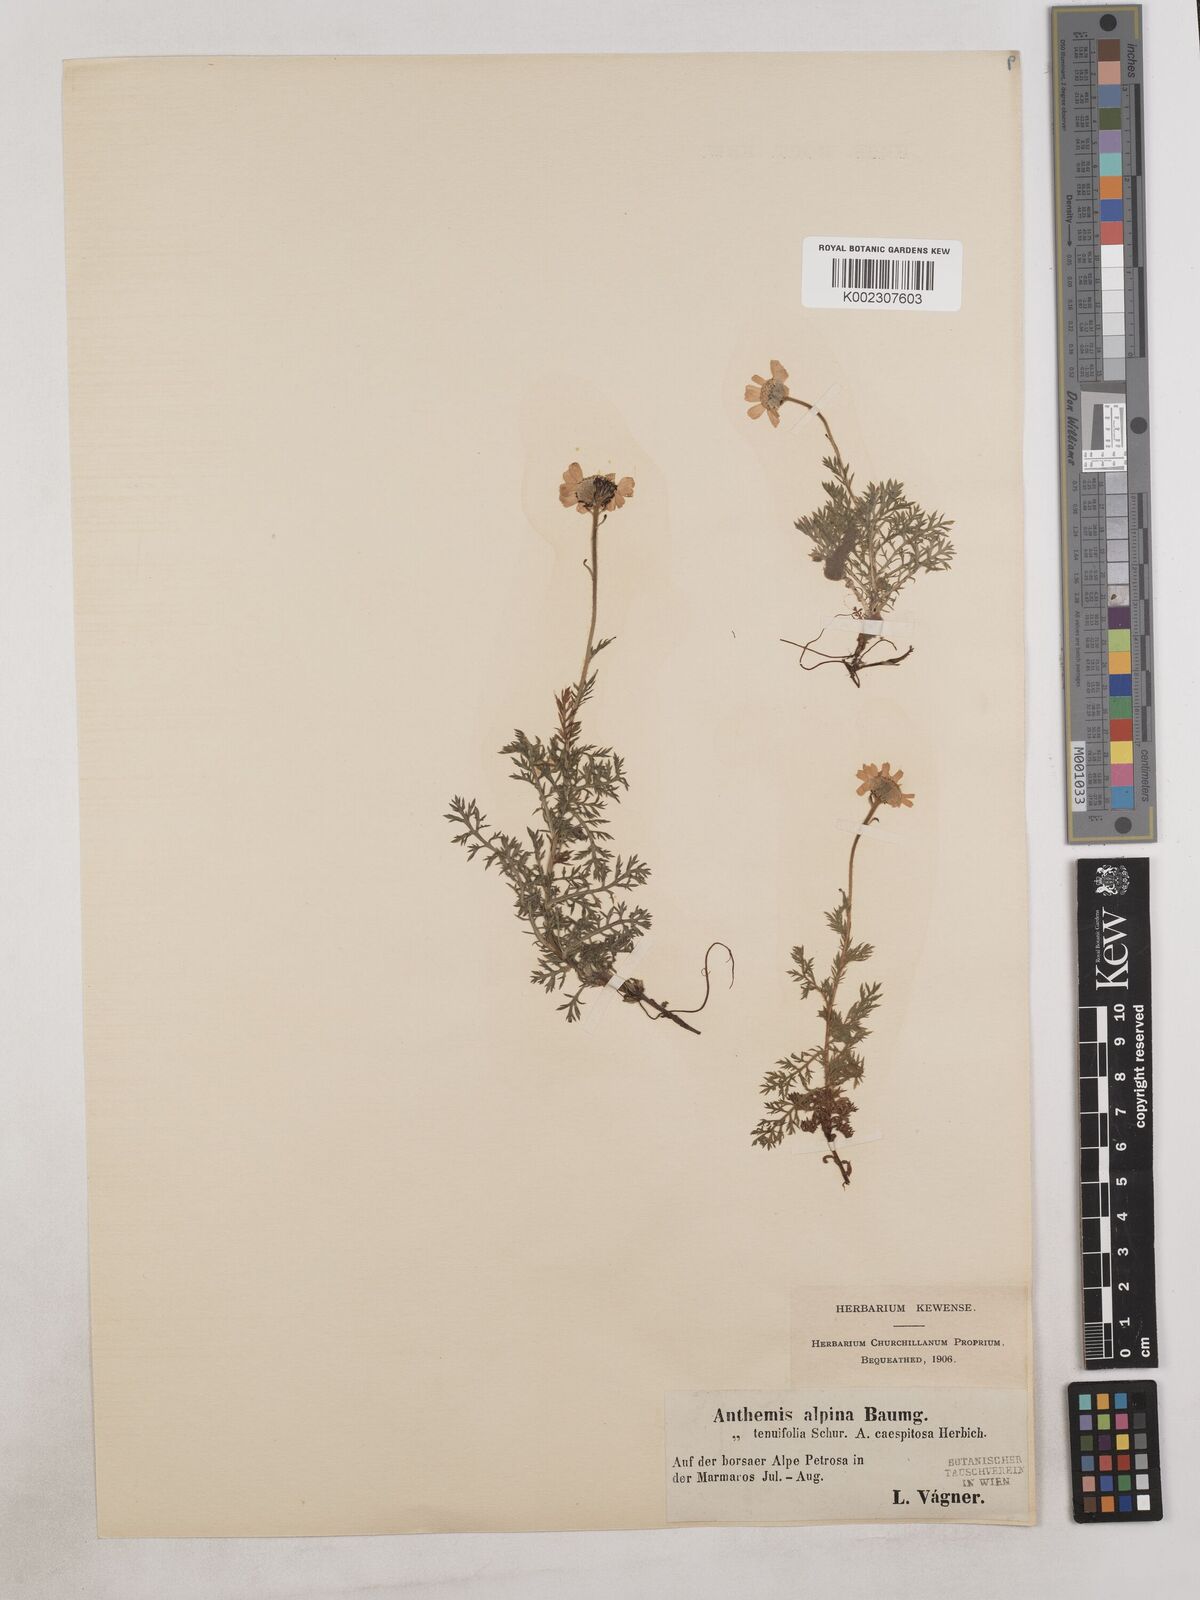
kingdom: Plantae
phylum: Tracheophyta
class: Magnoliopsida
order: Asterales
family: Asteraceae
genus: Achillea
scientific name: Achillea teretifolia
